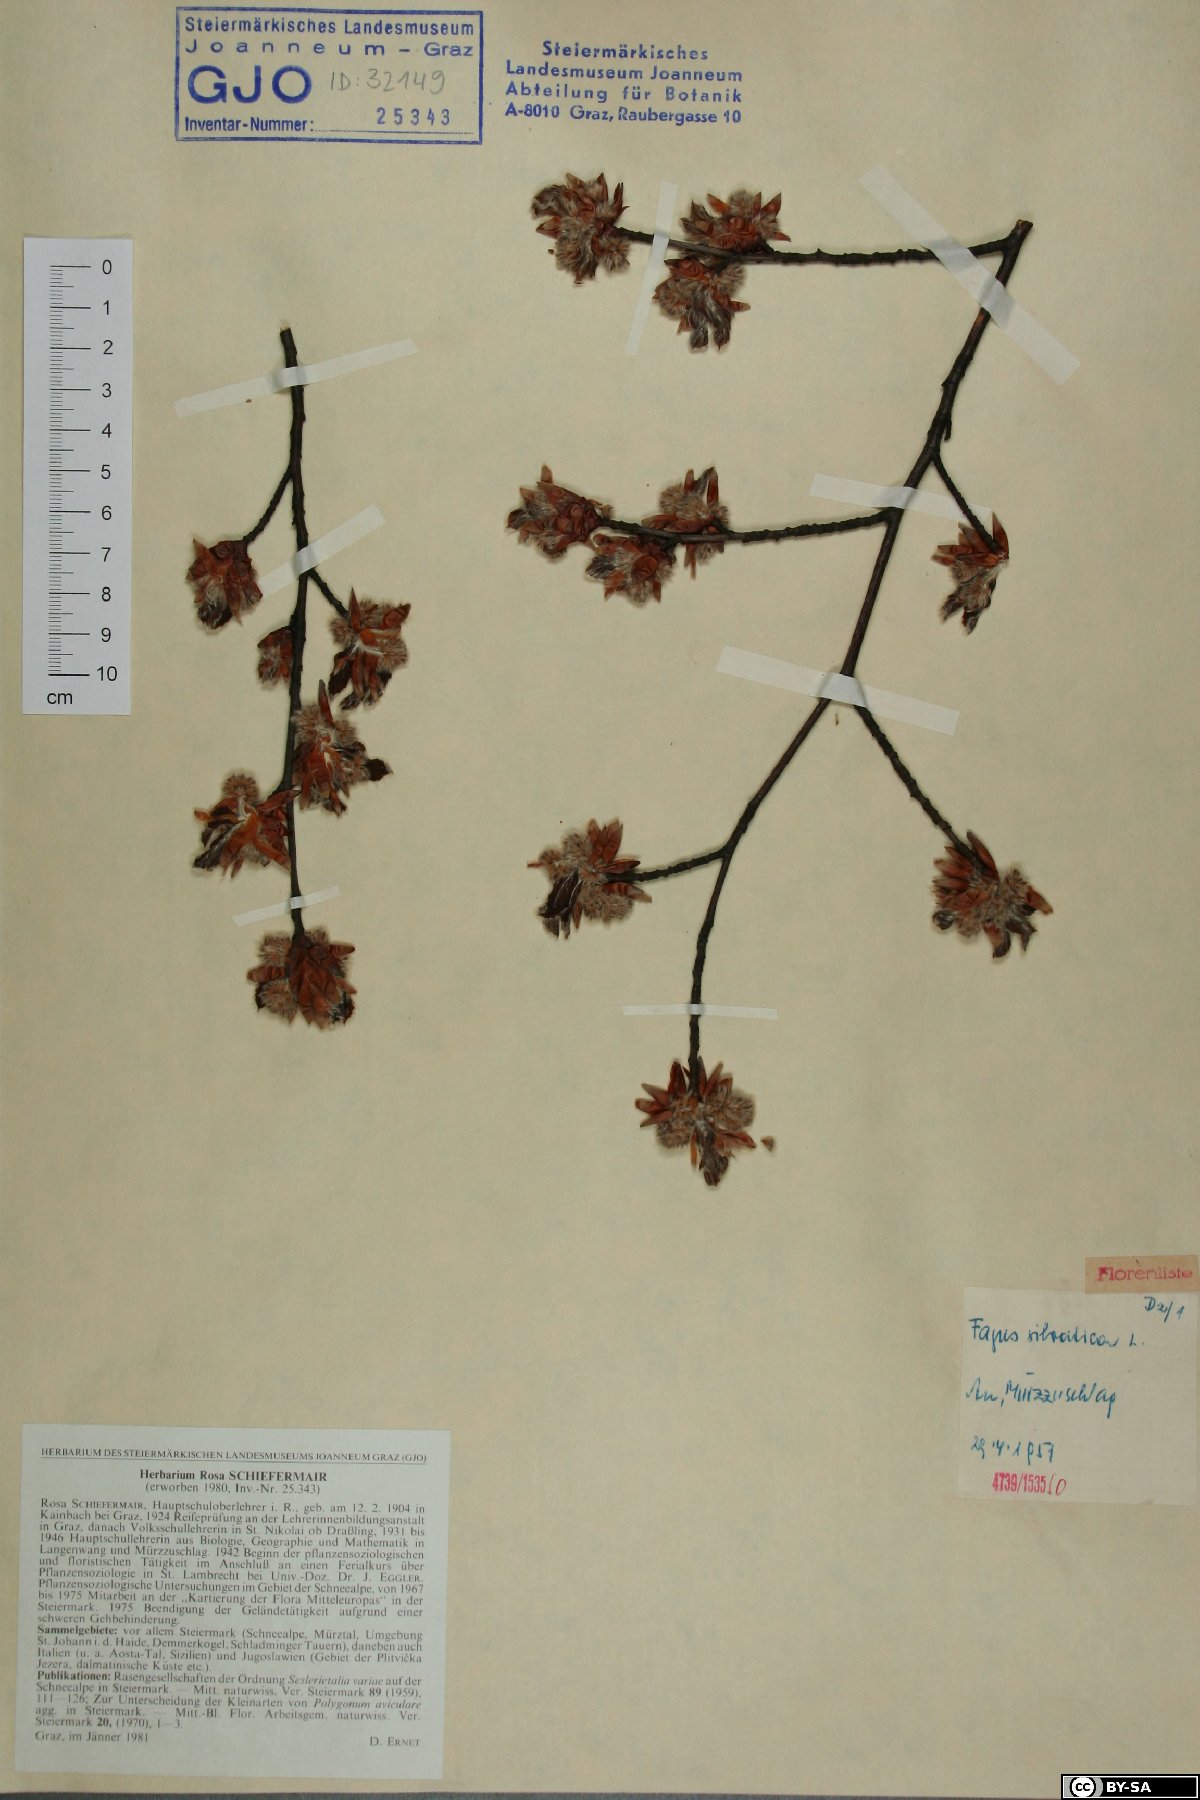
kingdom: Plantae
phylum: Tracheophyta
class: Magnoliopsida
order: Fagales
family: Fagaceae
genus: Fagus
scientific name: Fagus sylvatica
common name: Beech
